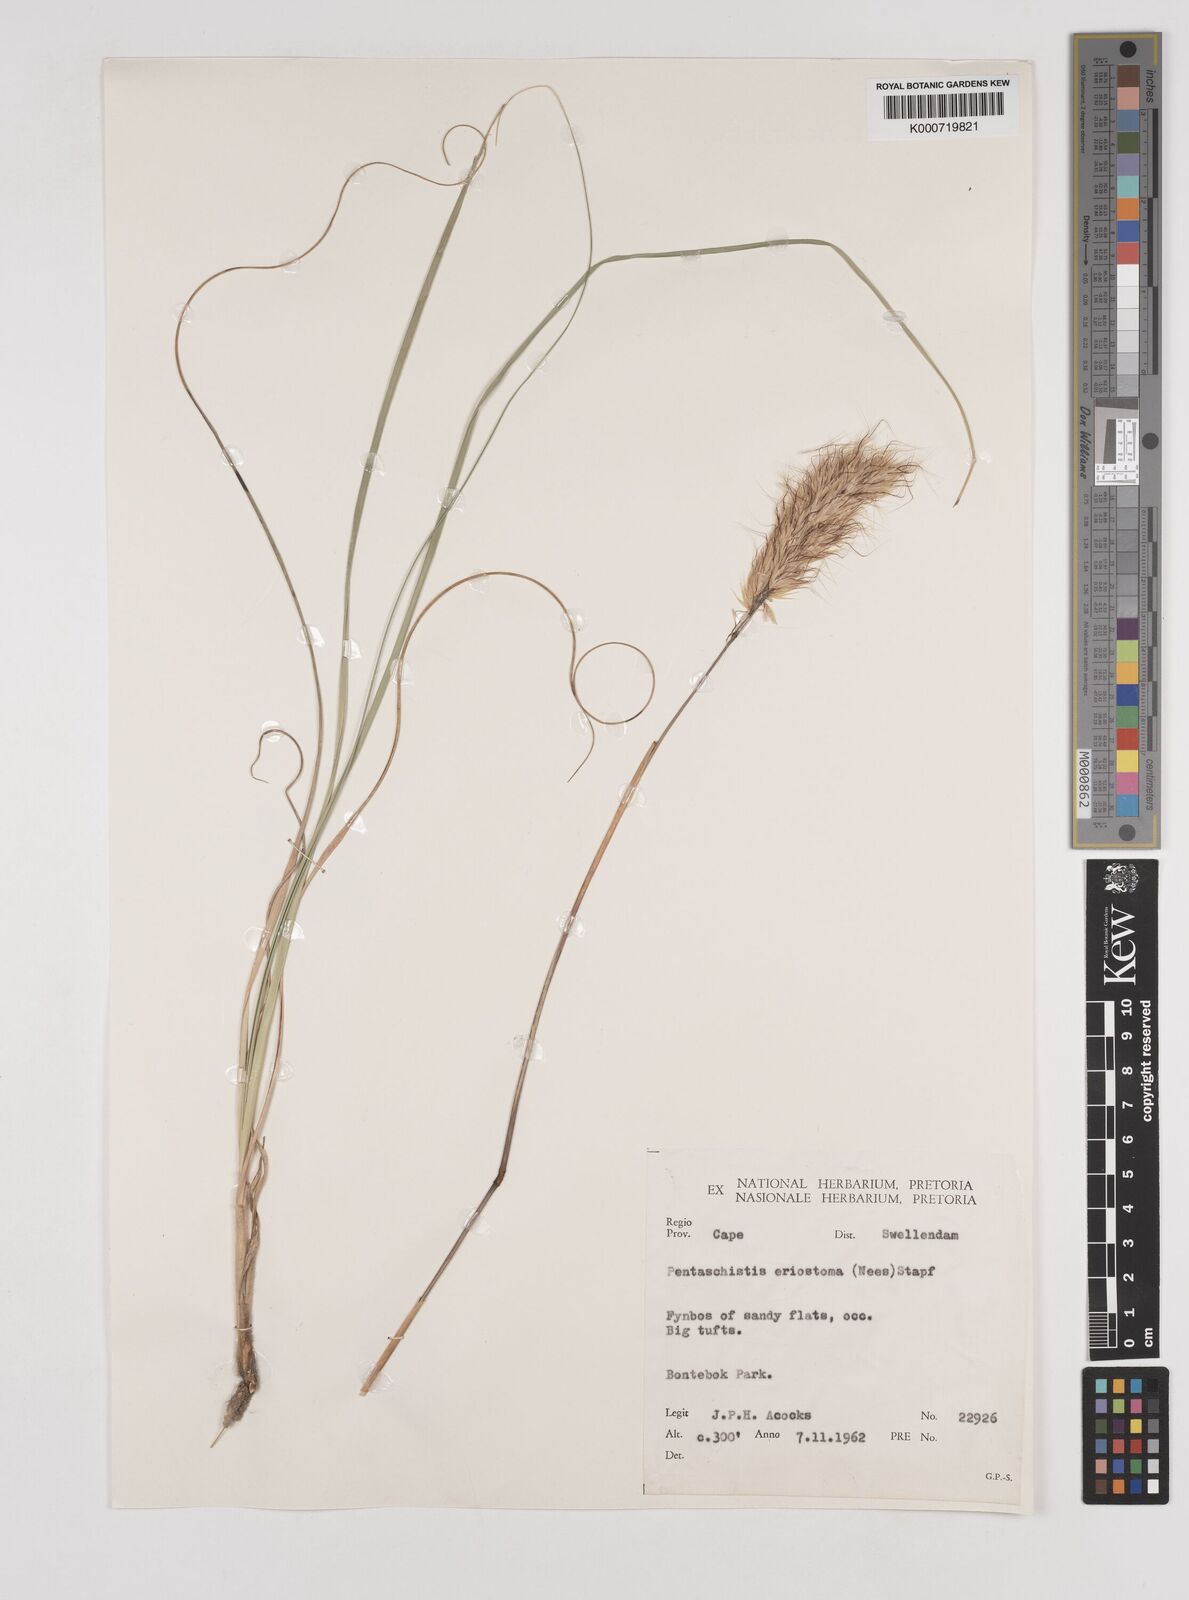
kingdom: Plantae
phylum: Tracheophyta
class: Liliopsida
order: Poales
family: Poaceae
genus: Pentameris
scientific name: Pentameris eriostoma
